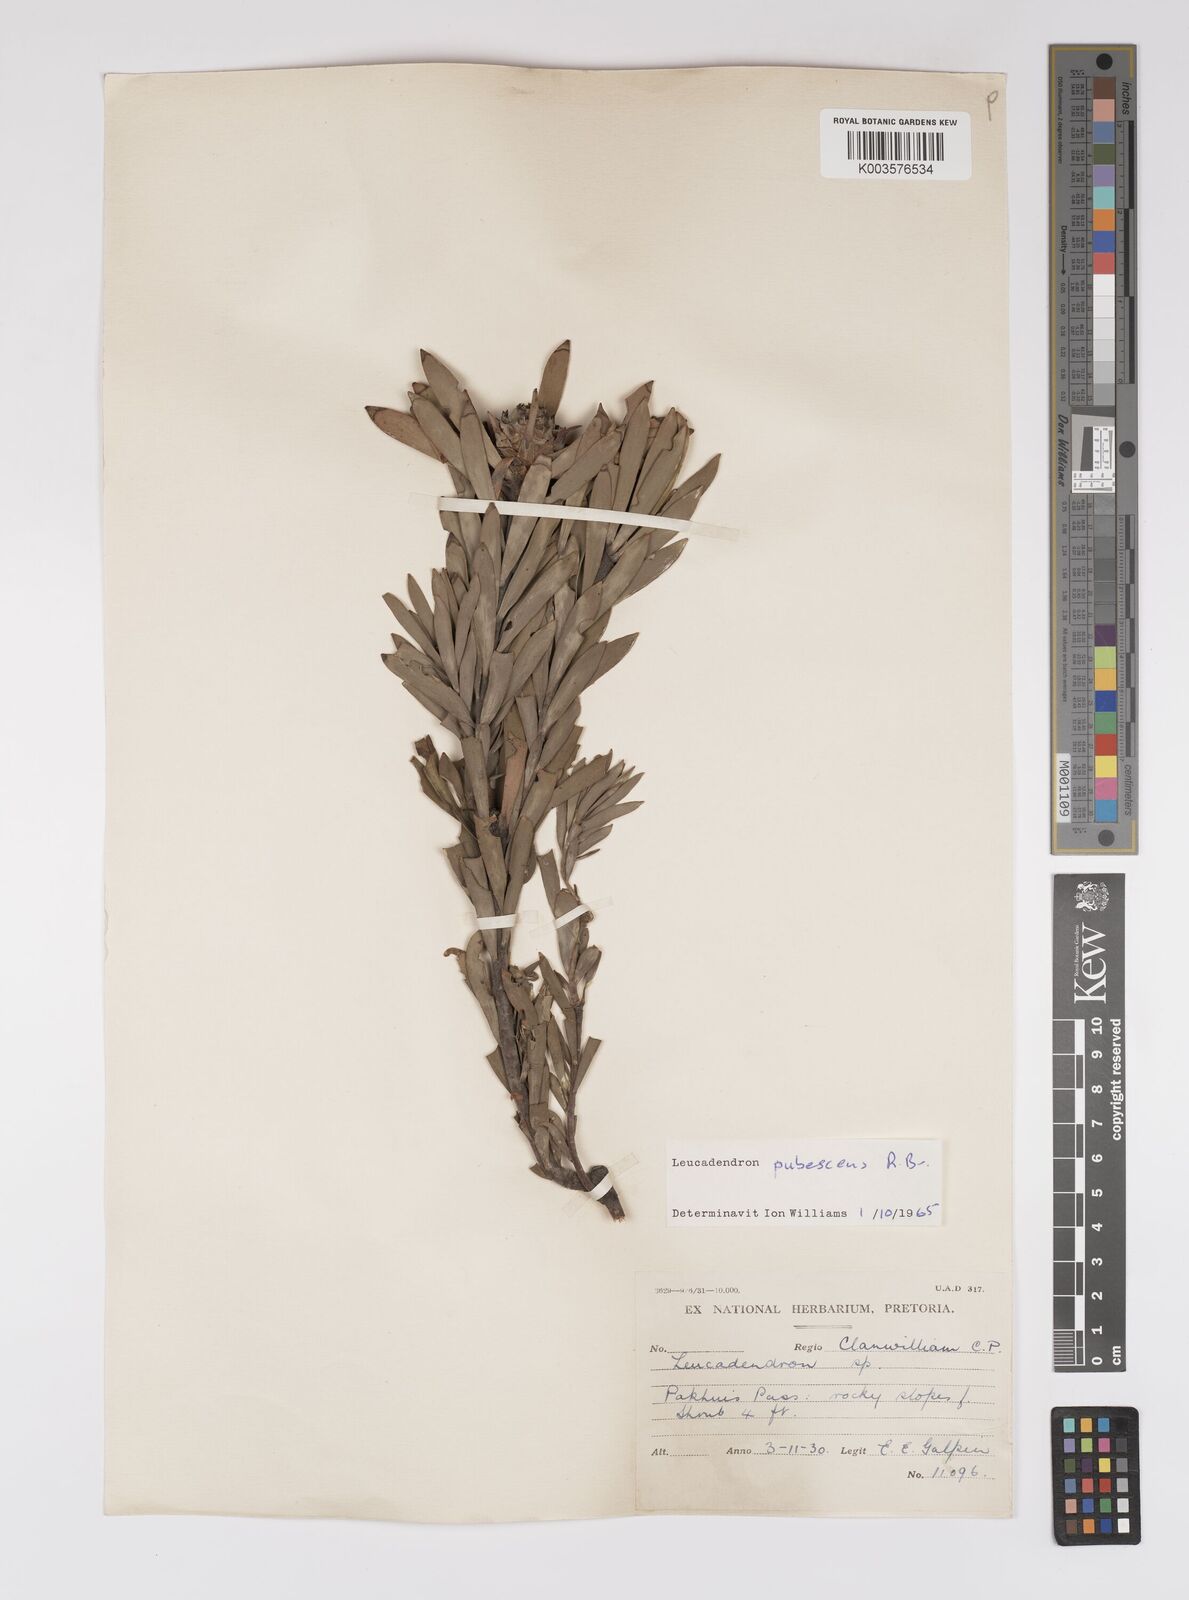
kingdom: Plantae
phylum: Tracheophyta
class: Magnoliopsida
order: Proteales
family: Proteaceae
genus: Leucadendron
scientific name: Leucadendron pubescens
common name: Grey conebush
